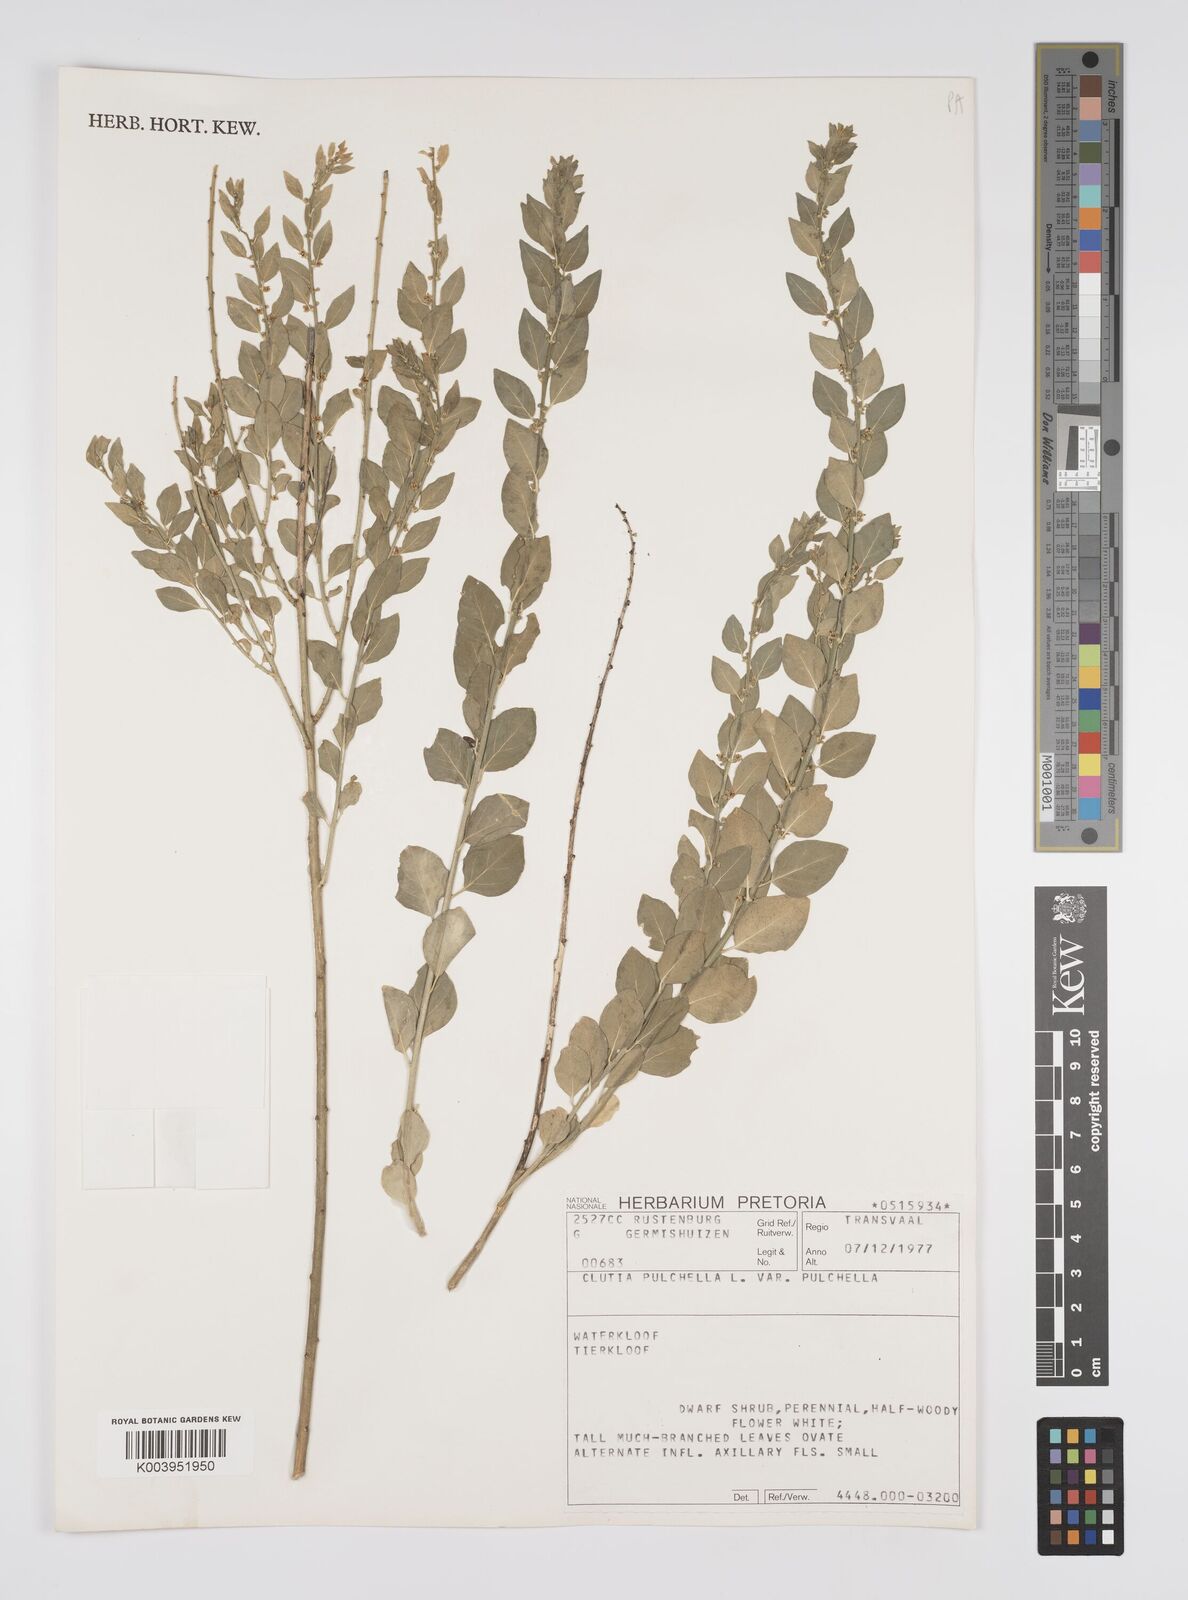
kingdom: Plantae
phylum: Tracheophyta
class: Magnoliopsida
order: Malpighiales
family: Peraceae
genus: Clutia
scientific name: Clutia pulchella
